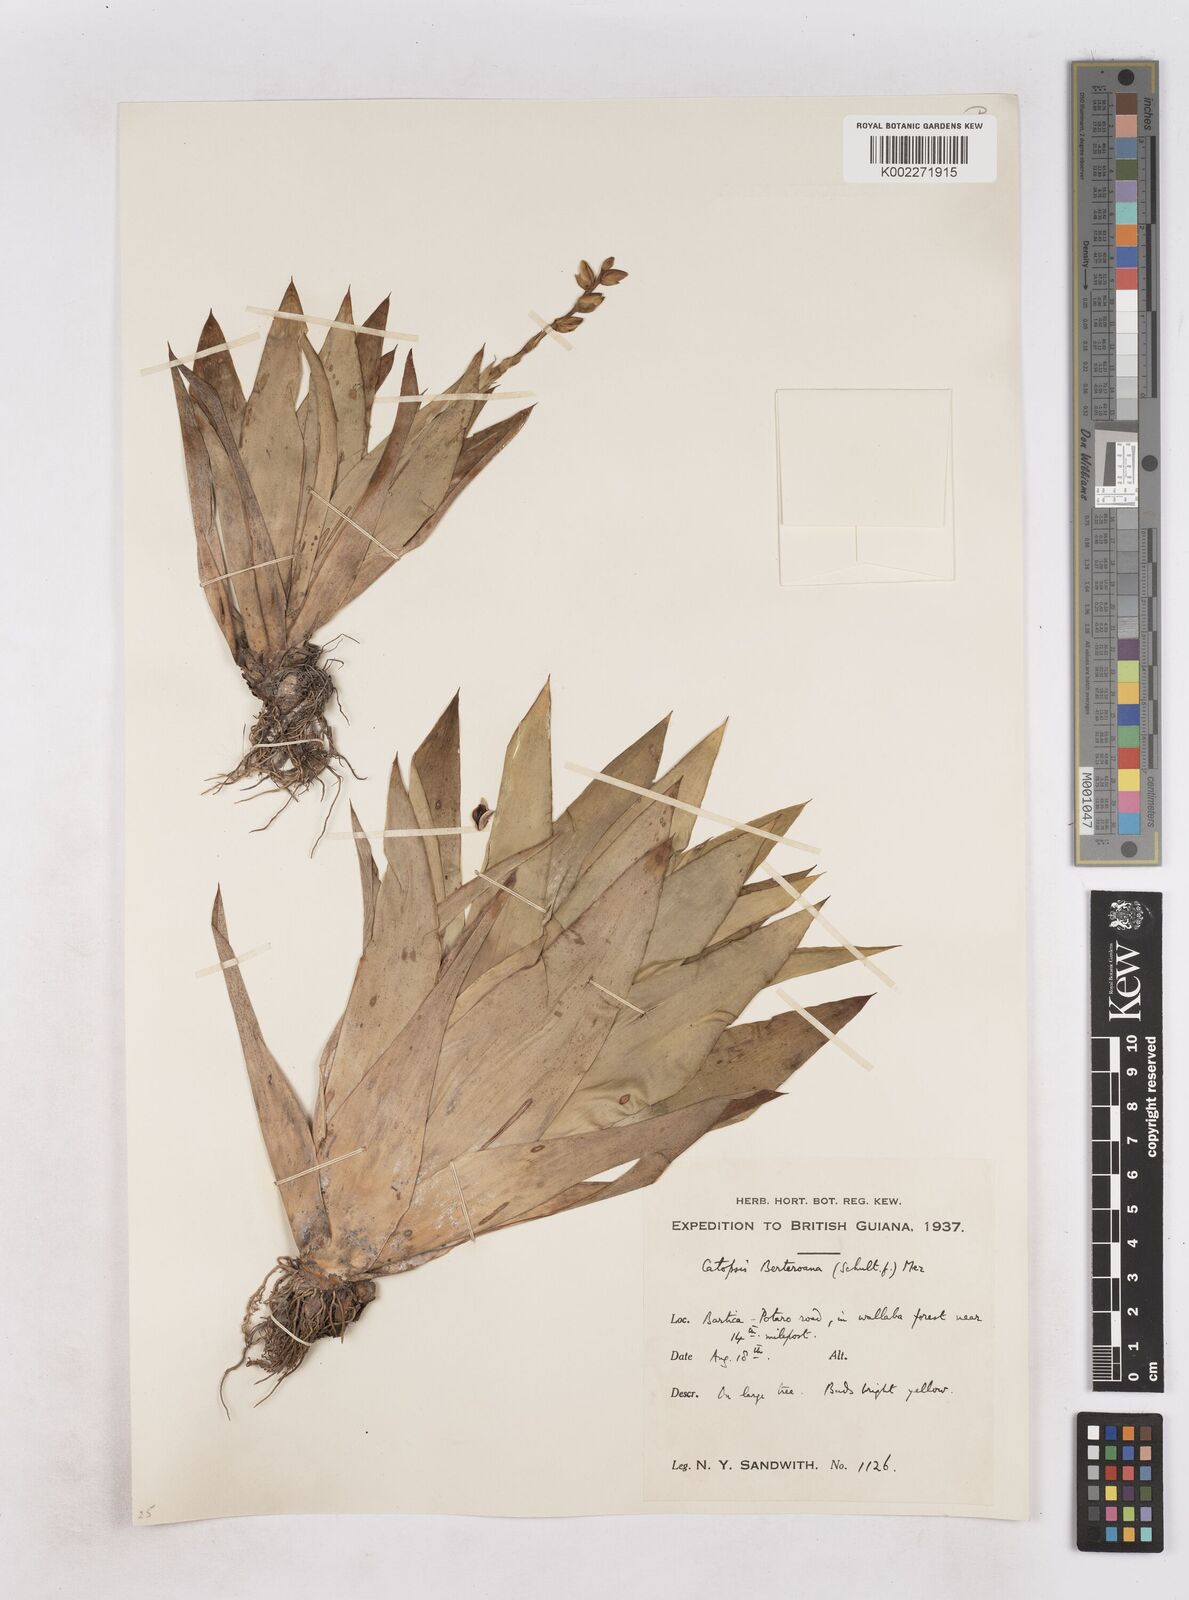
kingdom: Plantae
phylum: Tracheophyta
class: Liliopsida
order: Poales
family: Bromeliaceae
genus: Catopsis
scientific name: Catopsis berteroniana
